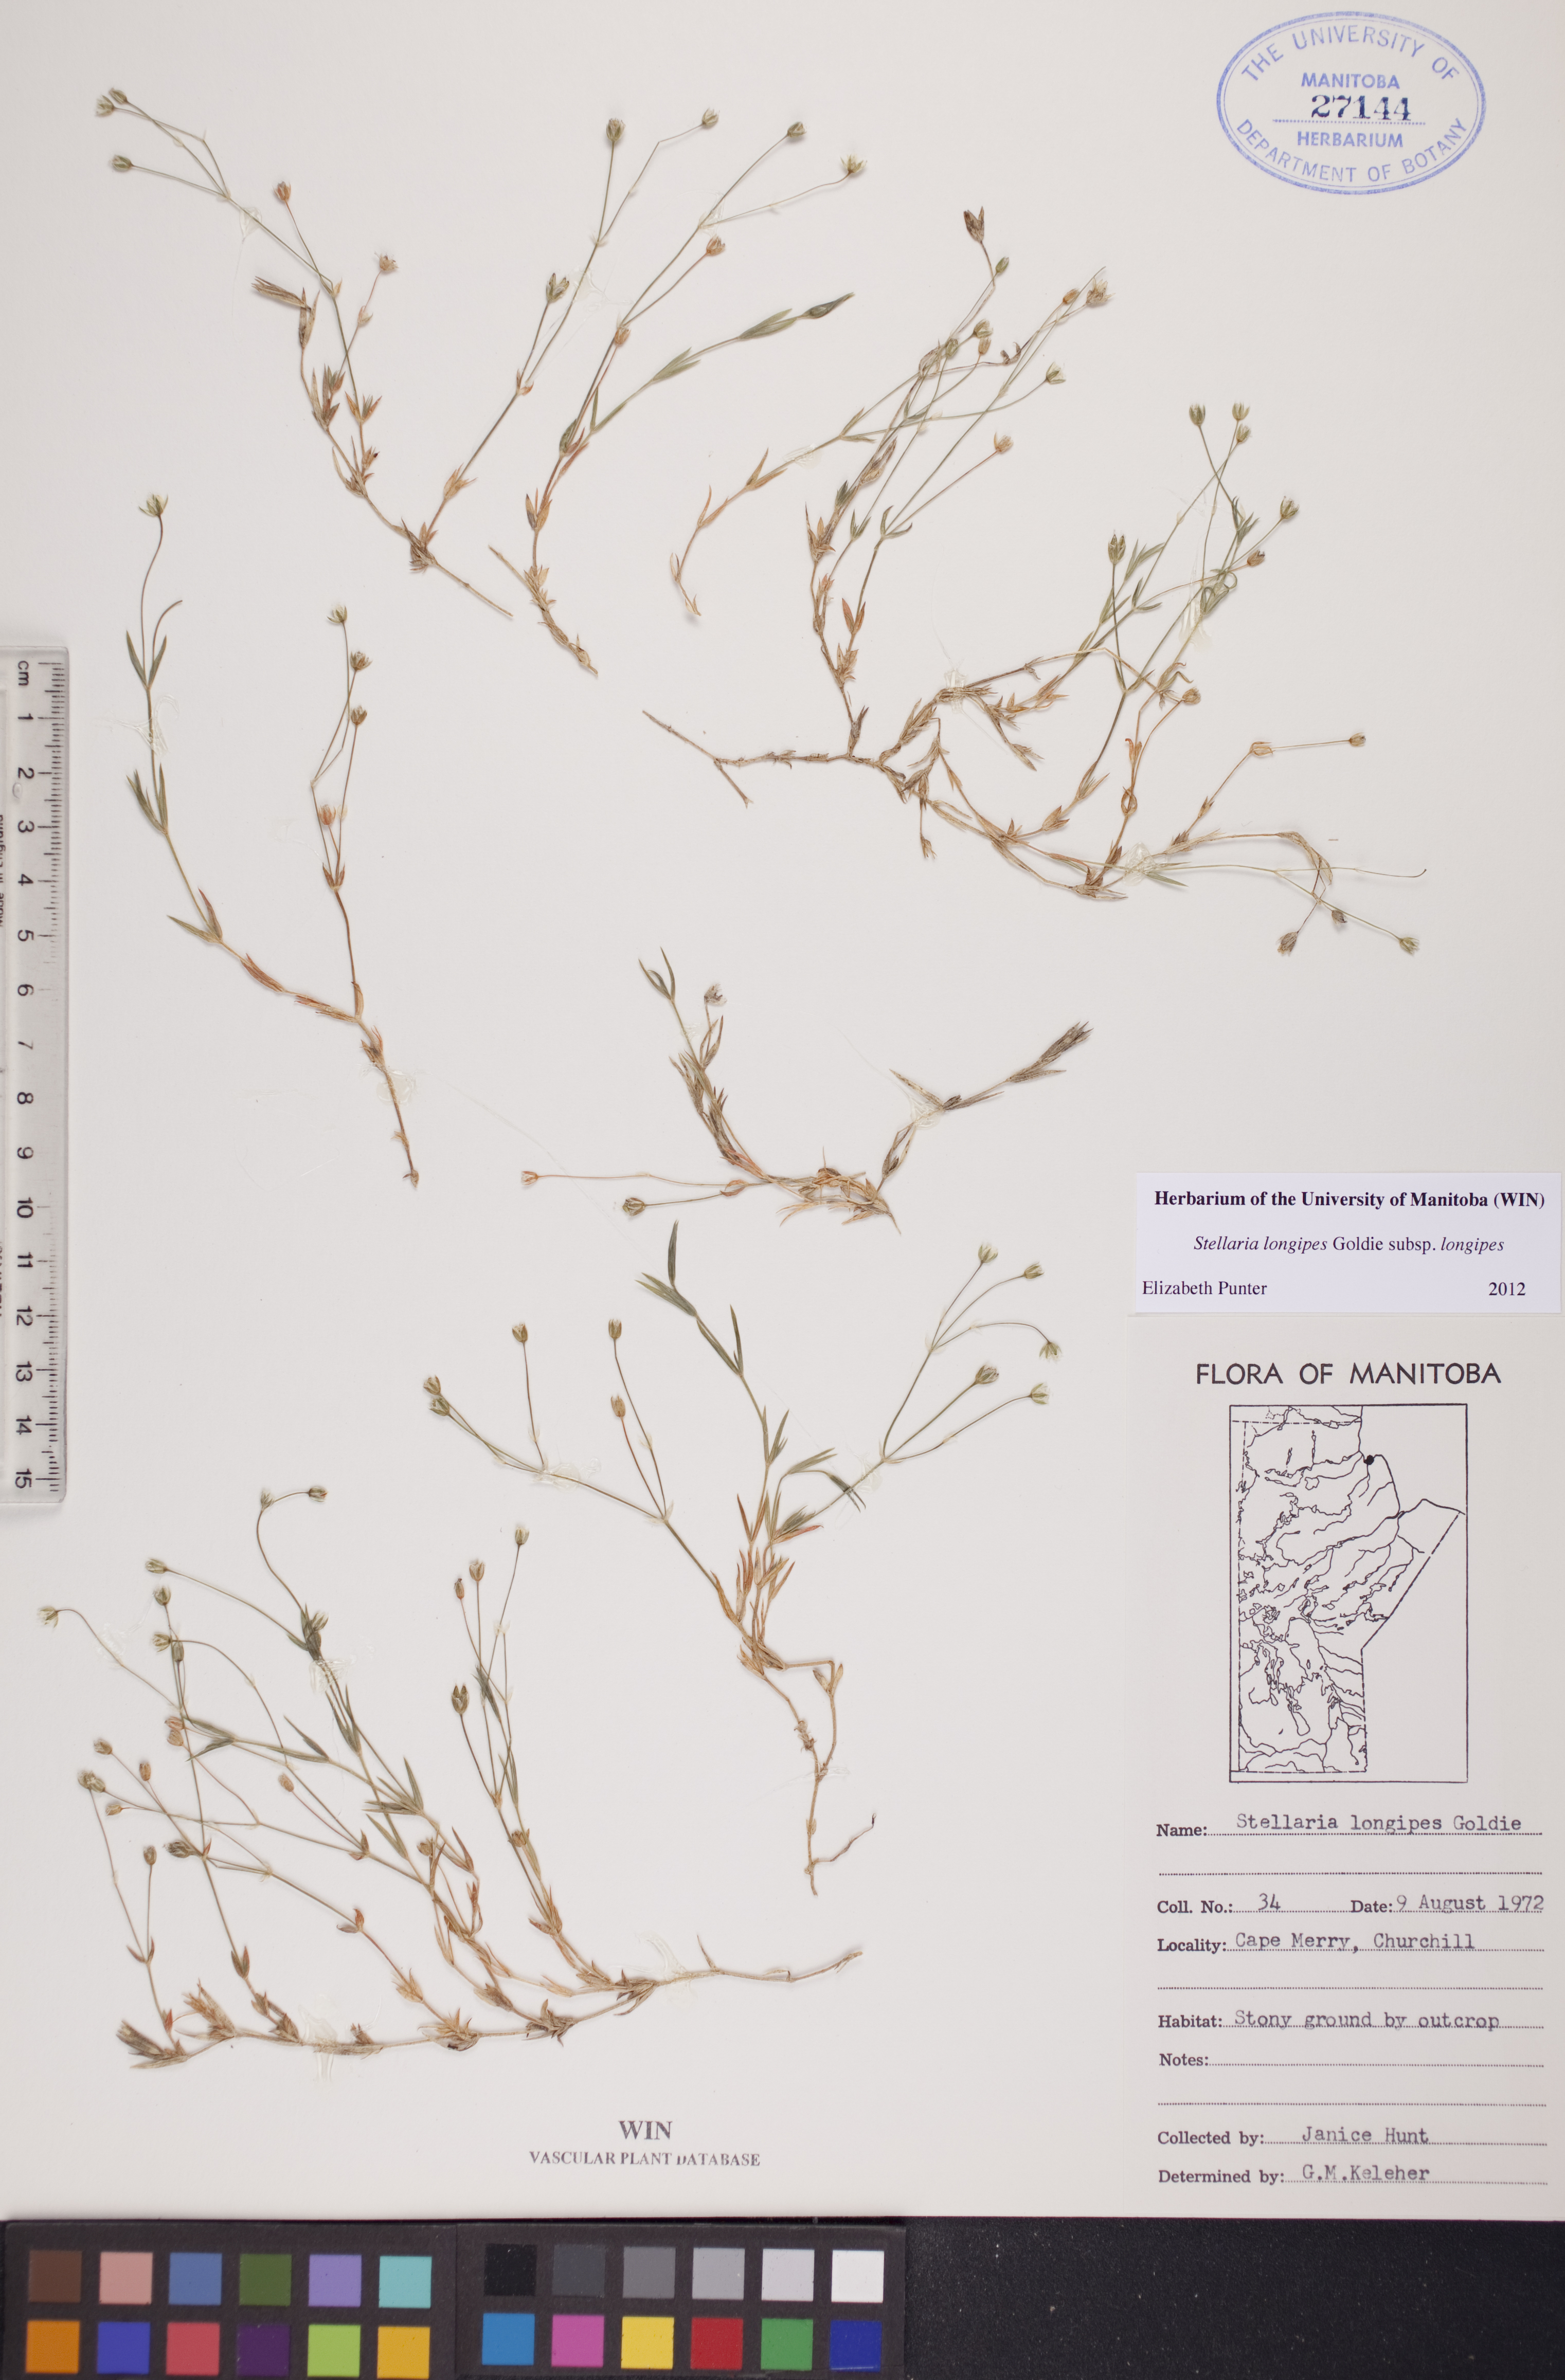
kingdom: Plantae
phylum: Tracheophyta
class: Magnoliopsida
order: Caryophyllales
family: Caryophyllaceae
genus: Stellaria
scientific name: Stellaria longipes
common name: Goldie's starwort
